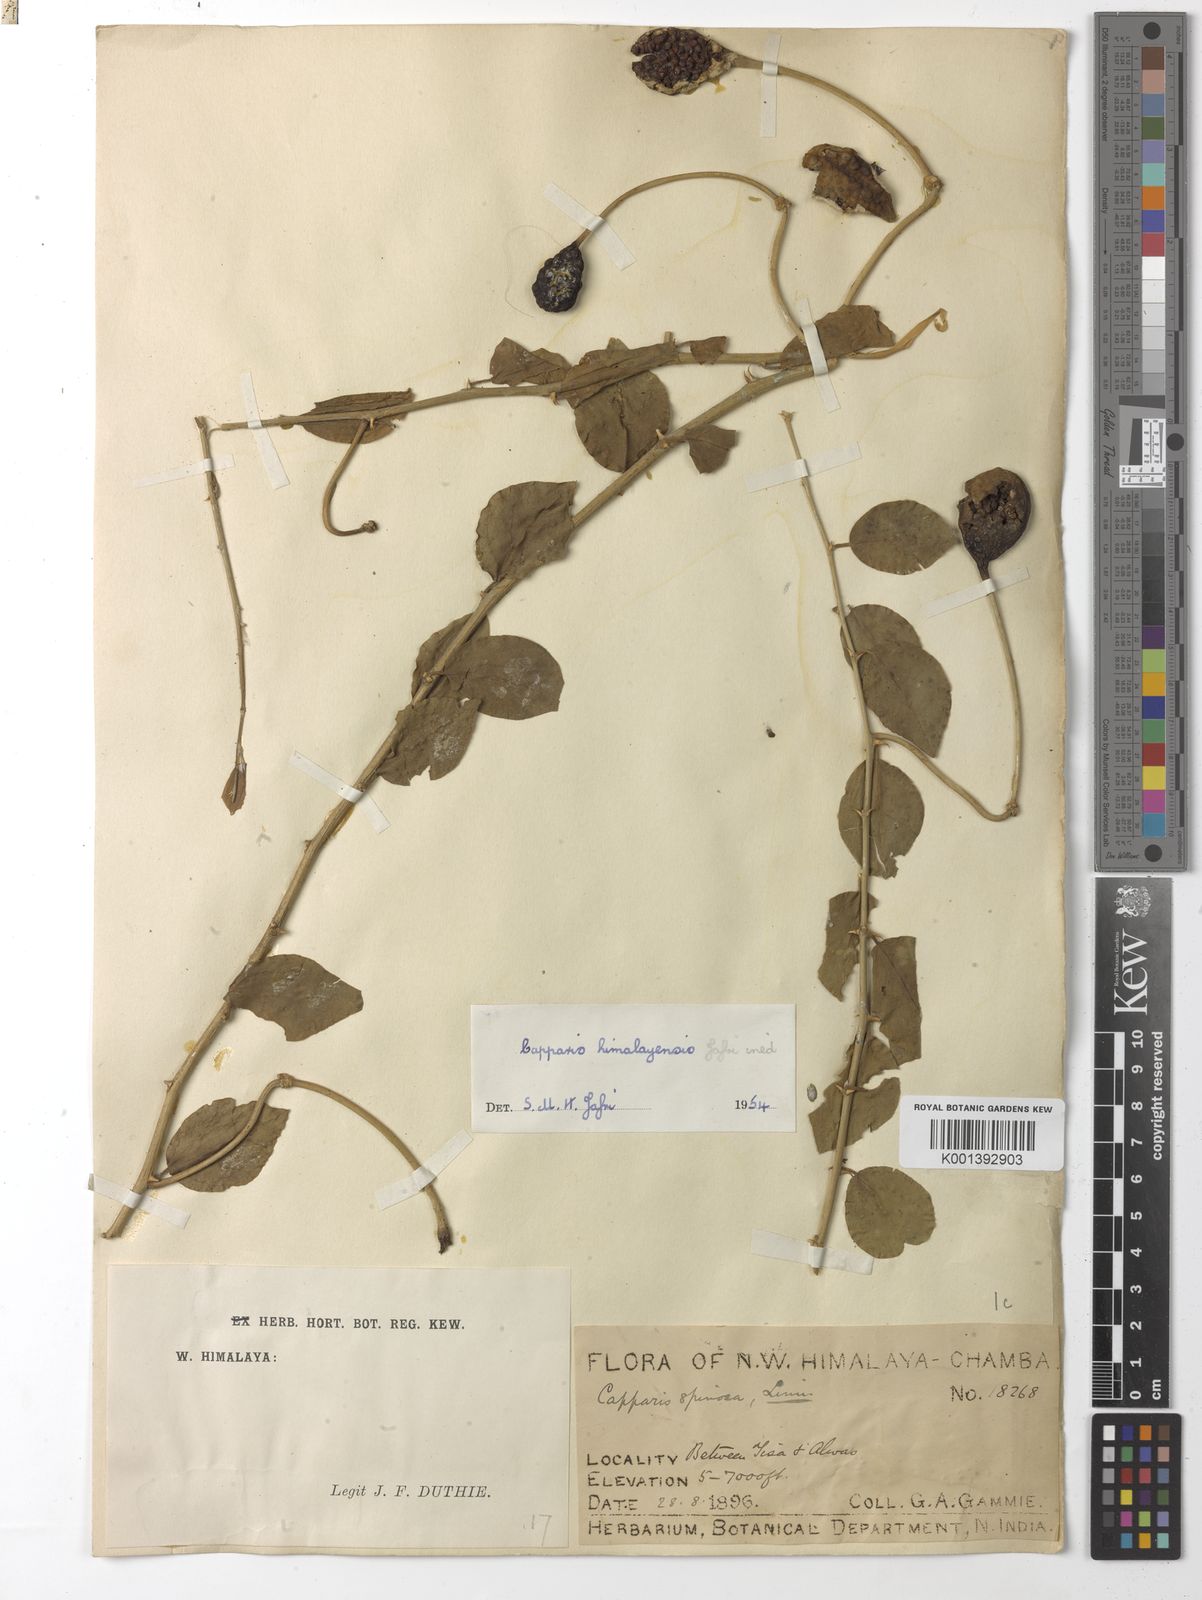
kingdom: Plantae
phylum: Tracheophyta
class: Magnoliopsida
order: Brassicales
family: Capparaceae
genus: Capparis
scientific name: Capparis spinosa
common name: Caper
